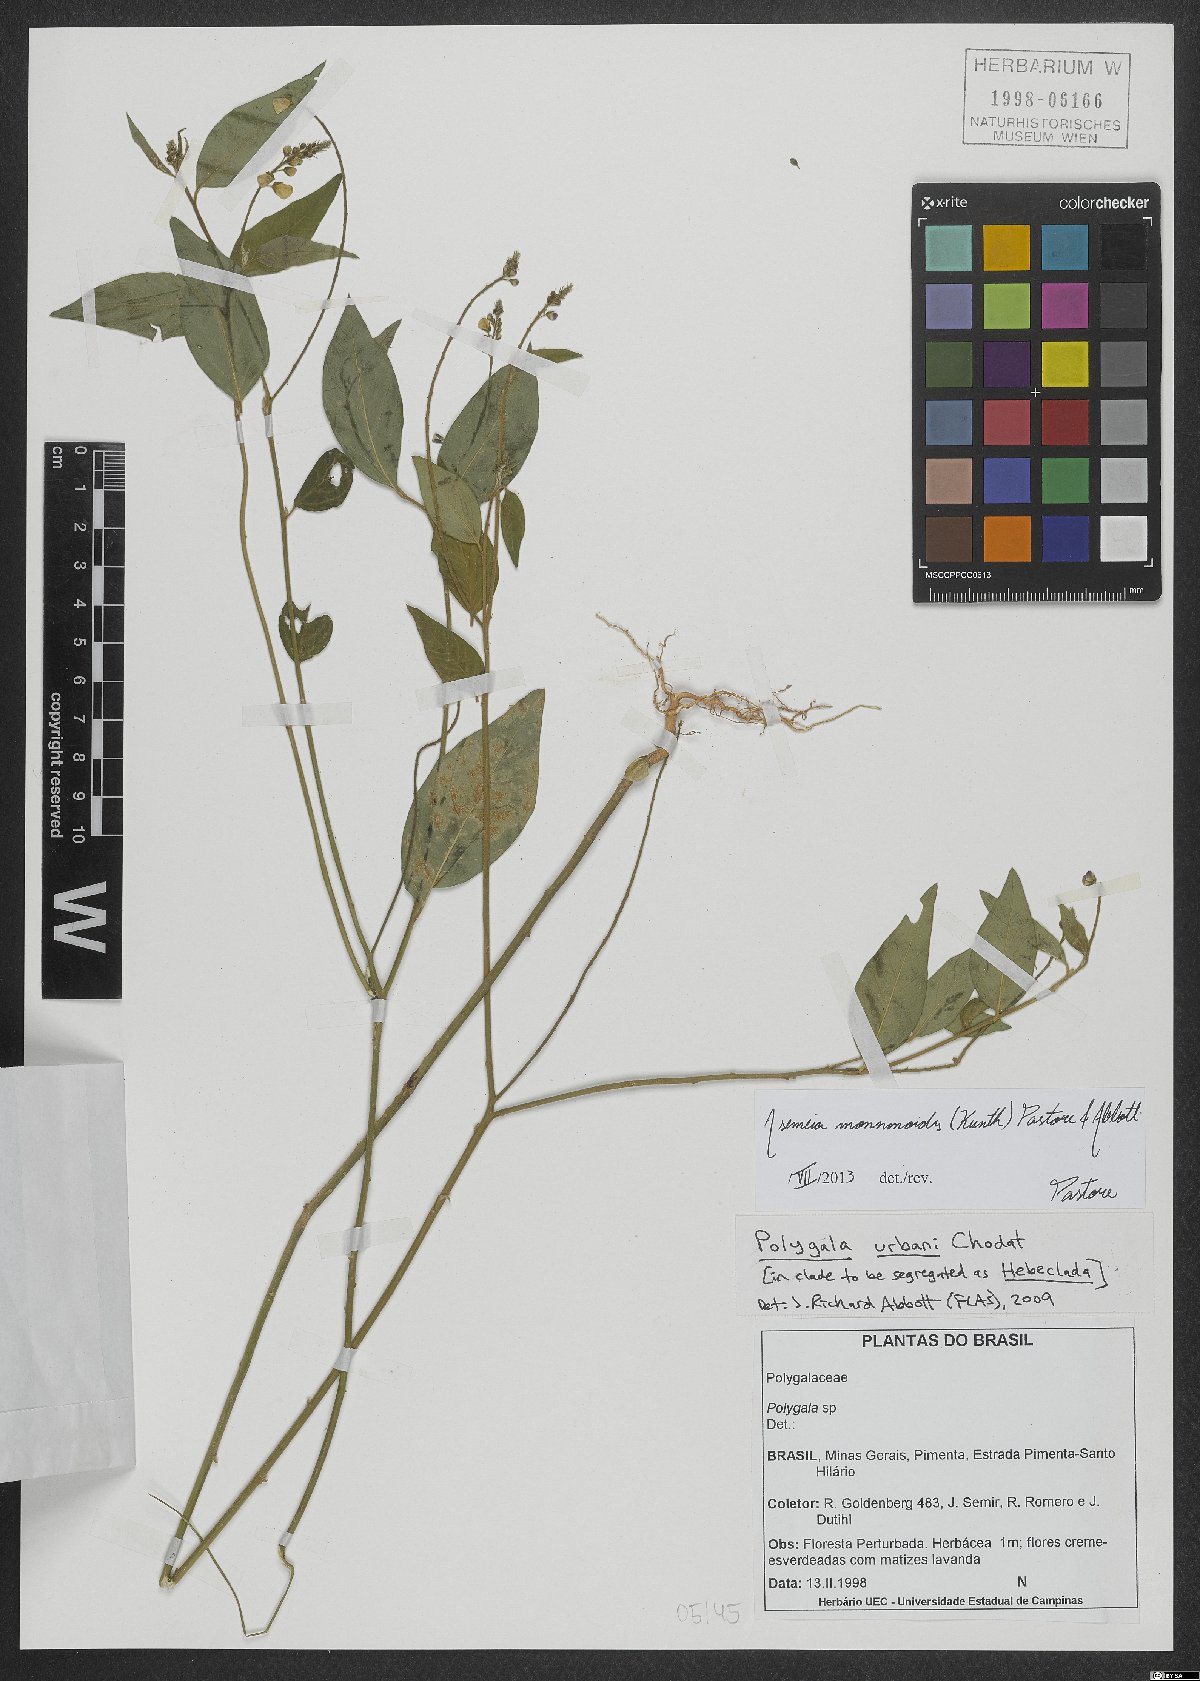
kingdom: Plantae
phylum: Tracheophyta
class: Magnoliopsida
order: Fabales
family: Polygalaceae
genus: Asemeia
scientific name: Asemeia monninoides
